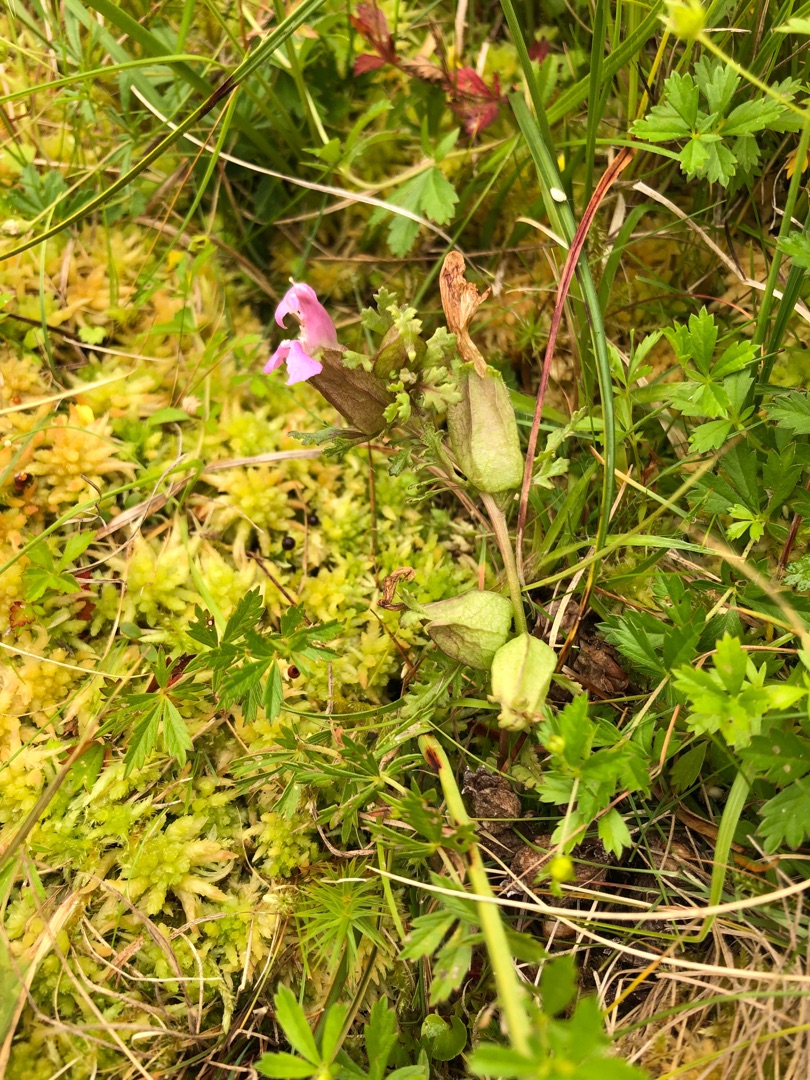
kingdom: Plantae
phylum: Tracheophyta
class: Magnoliopsida
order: Lamiales
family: Orobanchaceae
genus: Pedicularis
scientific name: Pedicularis sylvatica
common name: Mose-troldurt
